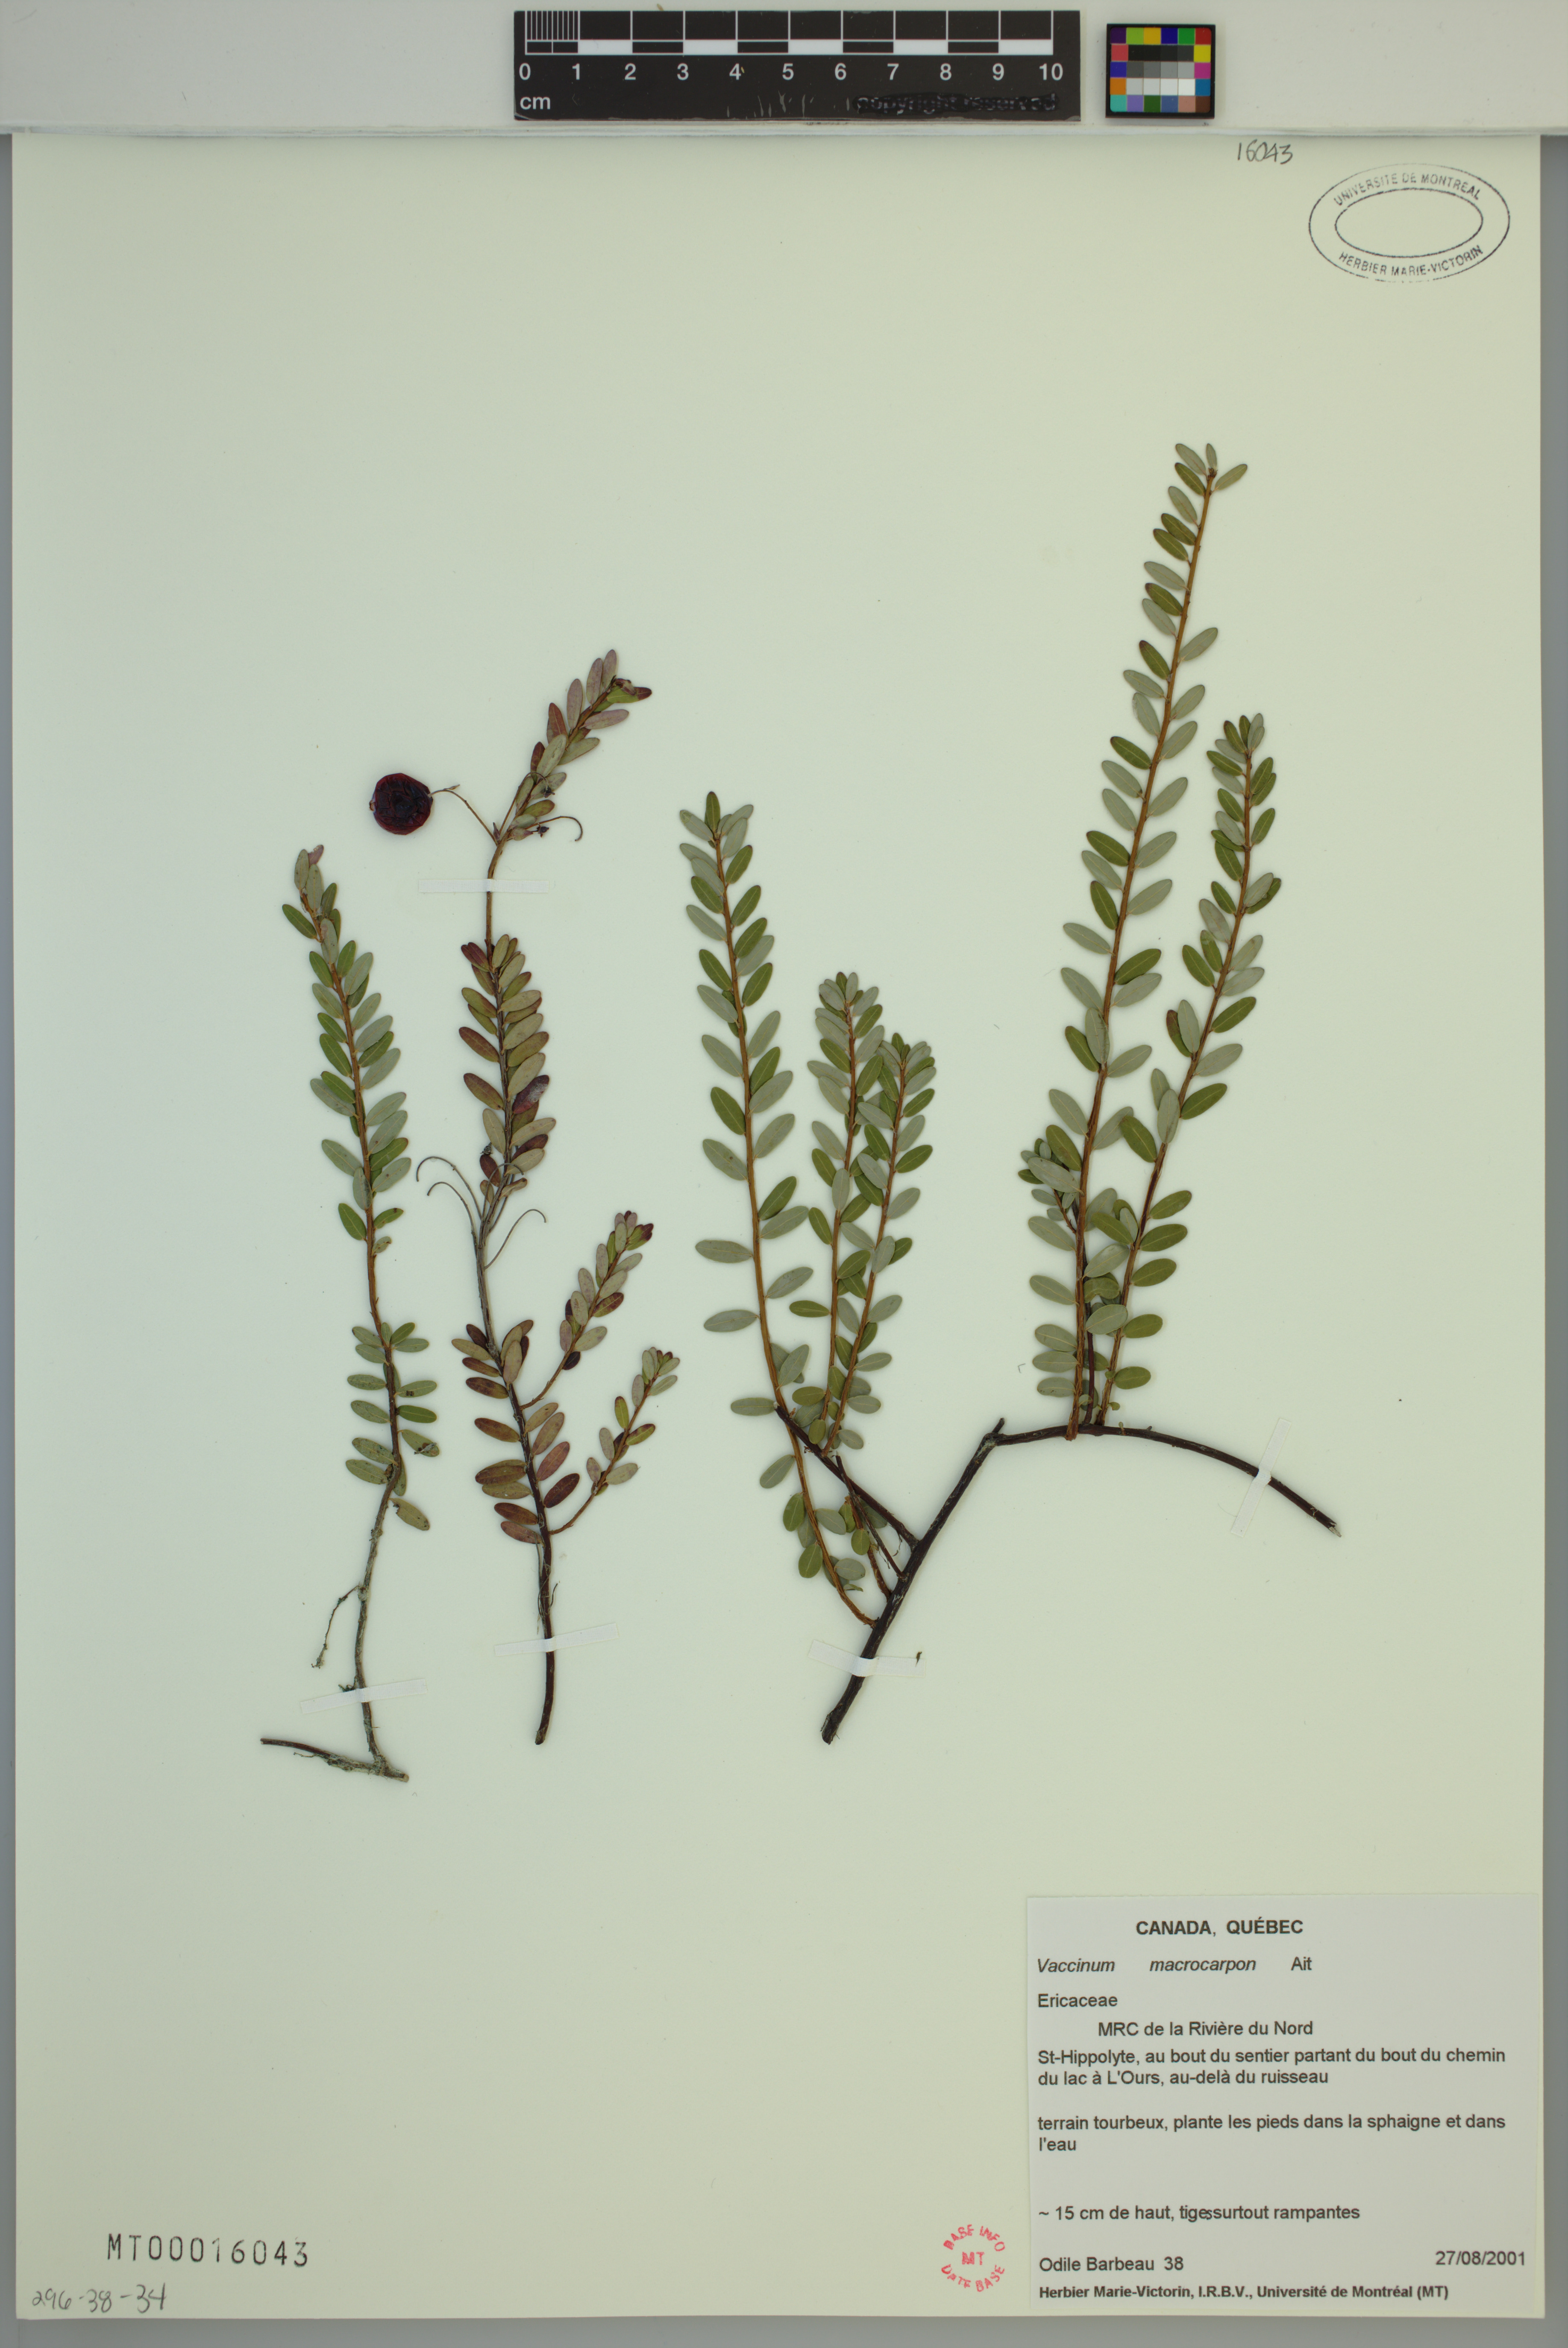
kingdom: Plantae
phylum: Tracheophyta
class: Magnoliopsida
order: Ericales
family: Ericaceae
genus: Vaccinium
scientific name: Vaccinium macrocarpon
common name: American cranberry
